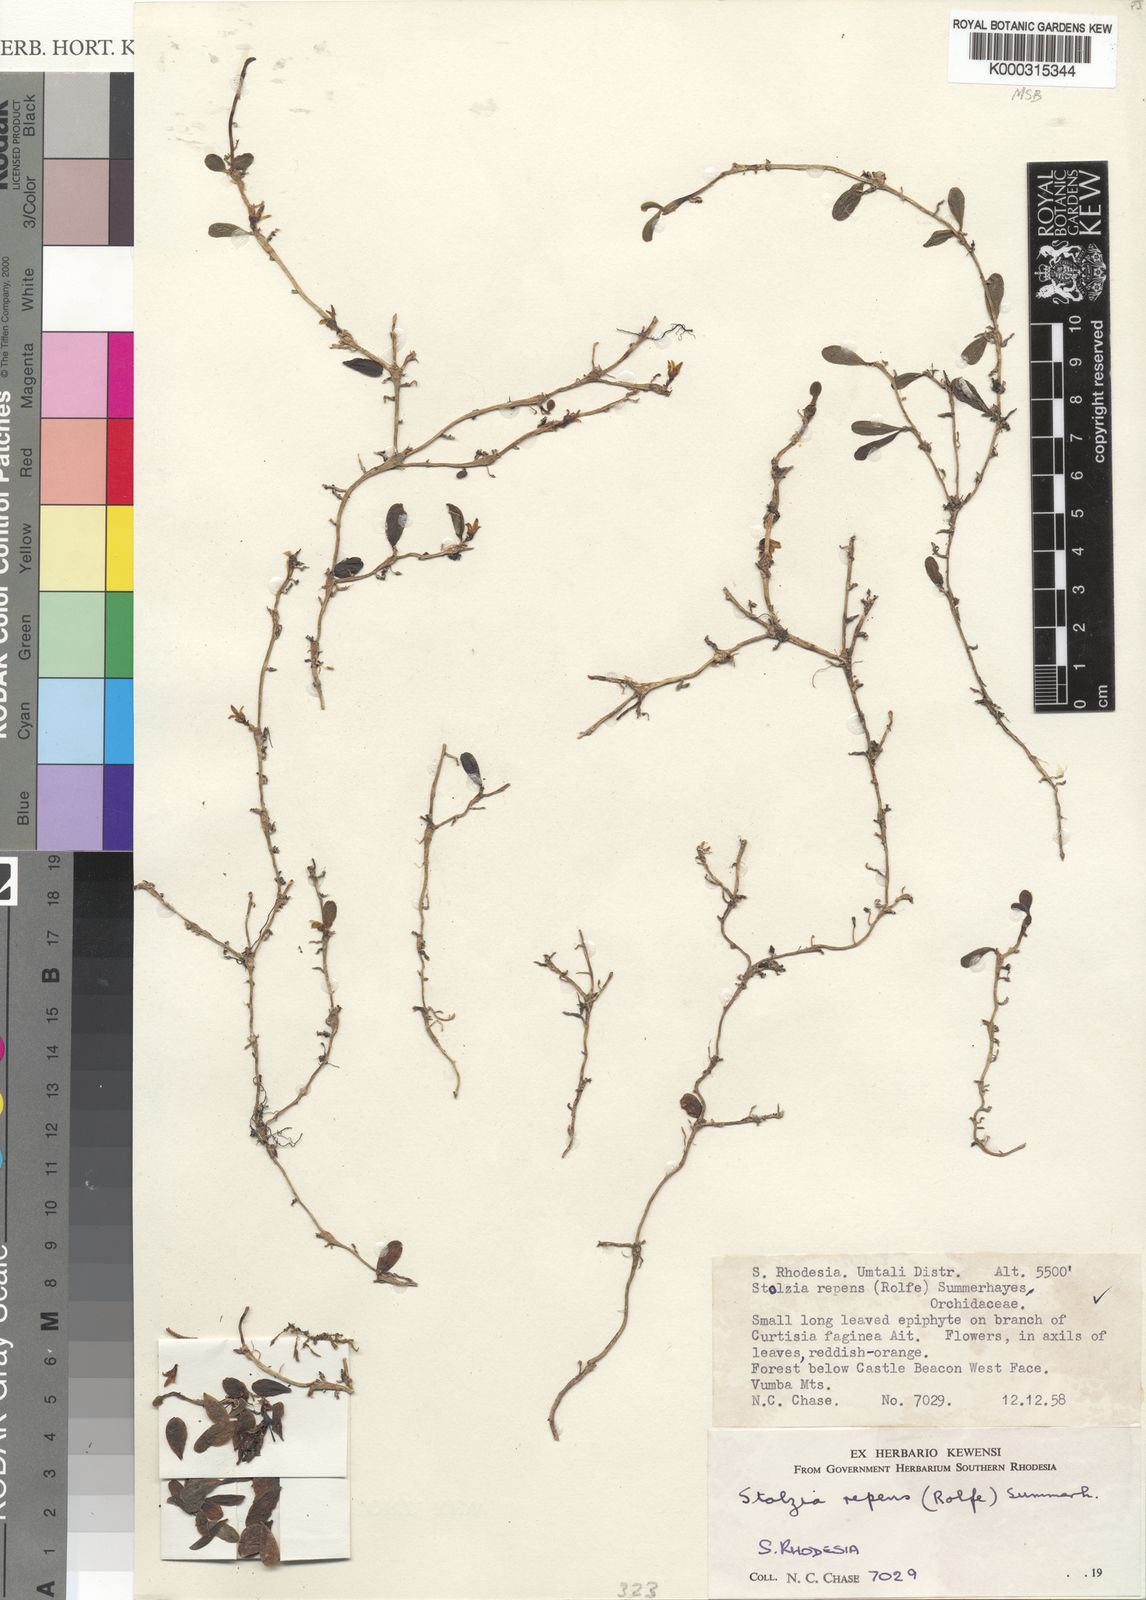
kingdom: Plantae
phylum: Tracheophyta
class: Liliopsida
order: Asparagales
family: Orchidaceae
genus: Porpax
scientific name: Porpax repens
